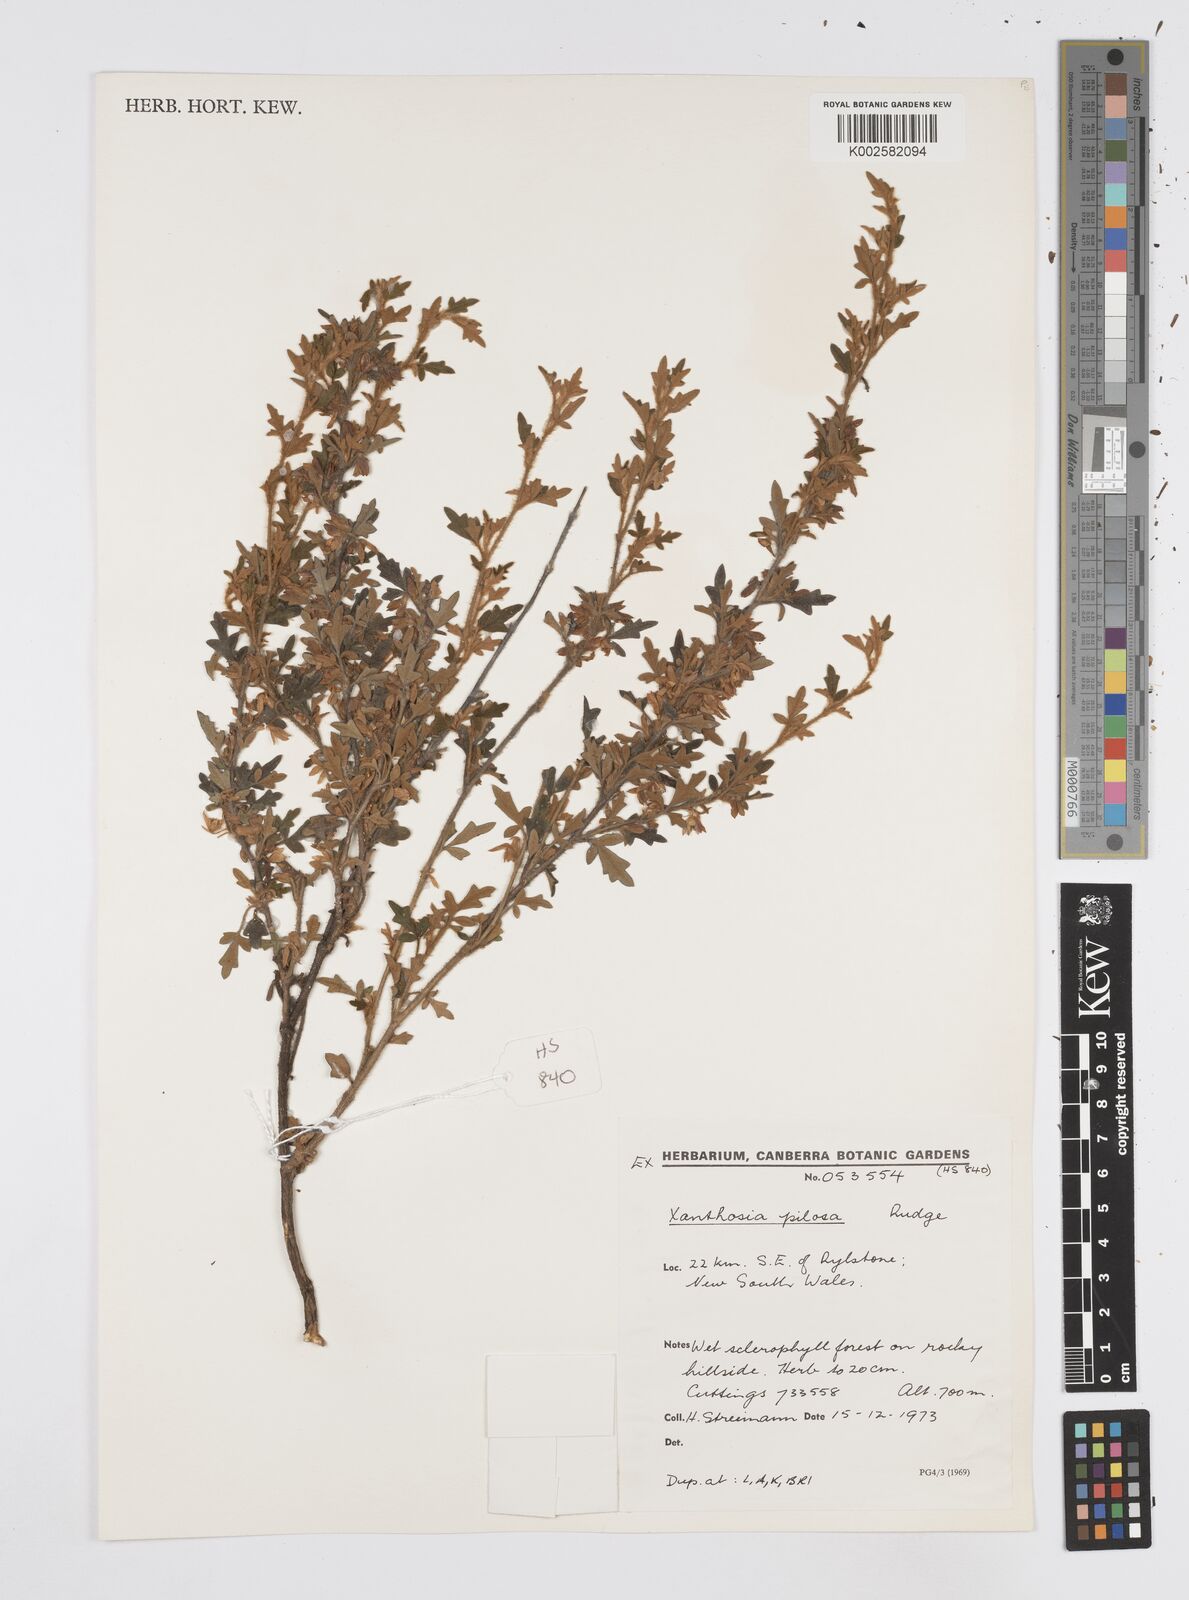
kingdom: Plantae
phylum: Tracheophyta
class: Magnoliopsida
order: Apiales
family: Apiaceae
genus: Xanthosia
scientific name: Xanthosia pilosa
